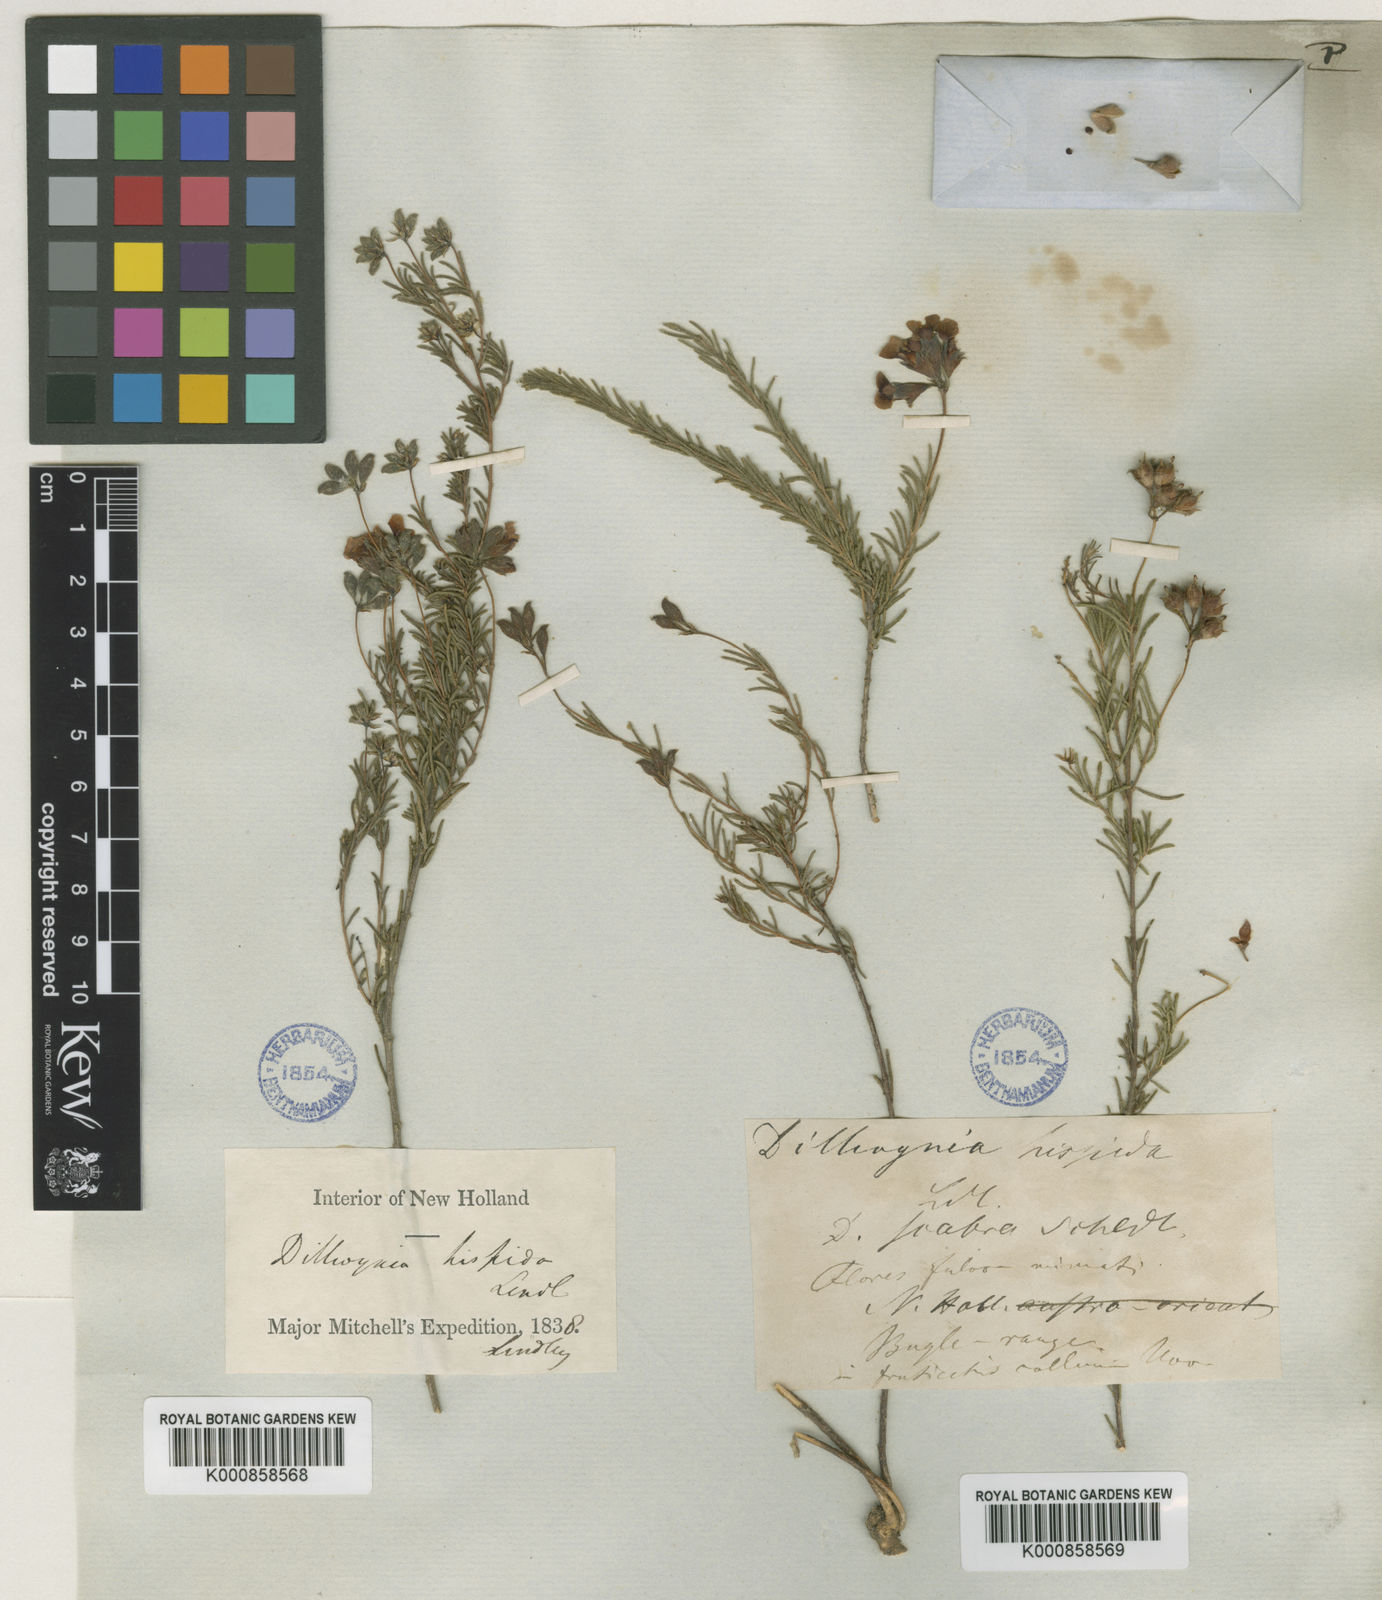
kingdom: Plantae
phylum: Tracheophyta
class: Magnoliopsida
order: Fabales
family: Fabaceae
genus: Dillwynia
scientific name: Dillwynia hispida
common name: Red parrot-pea
